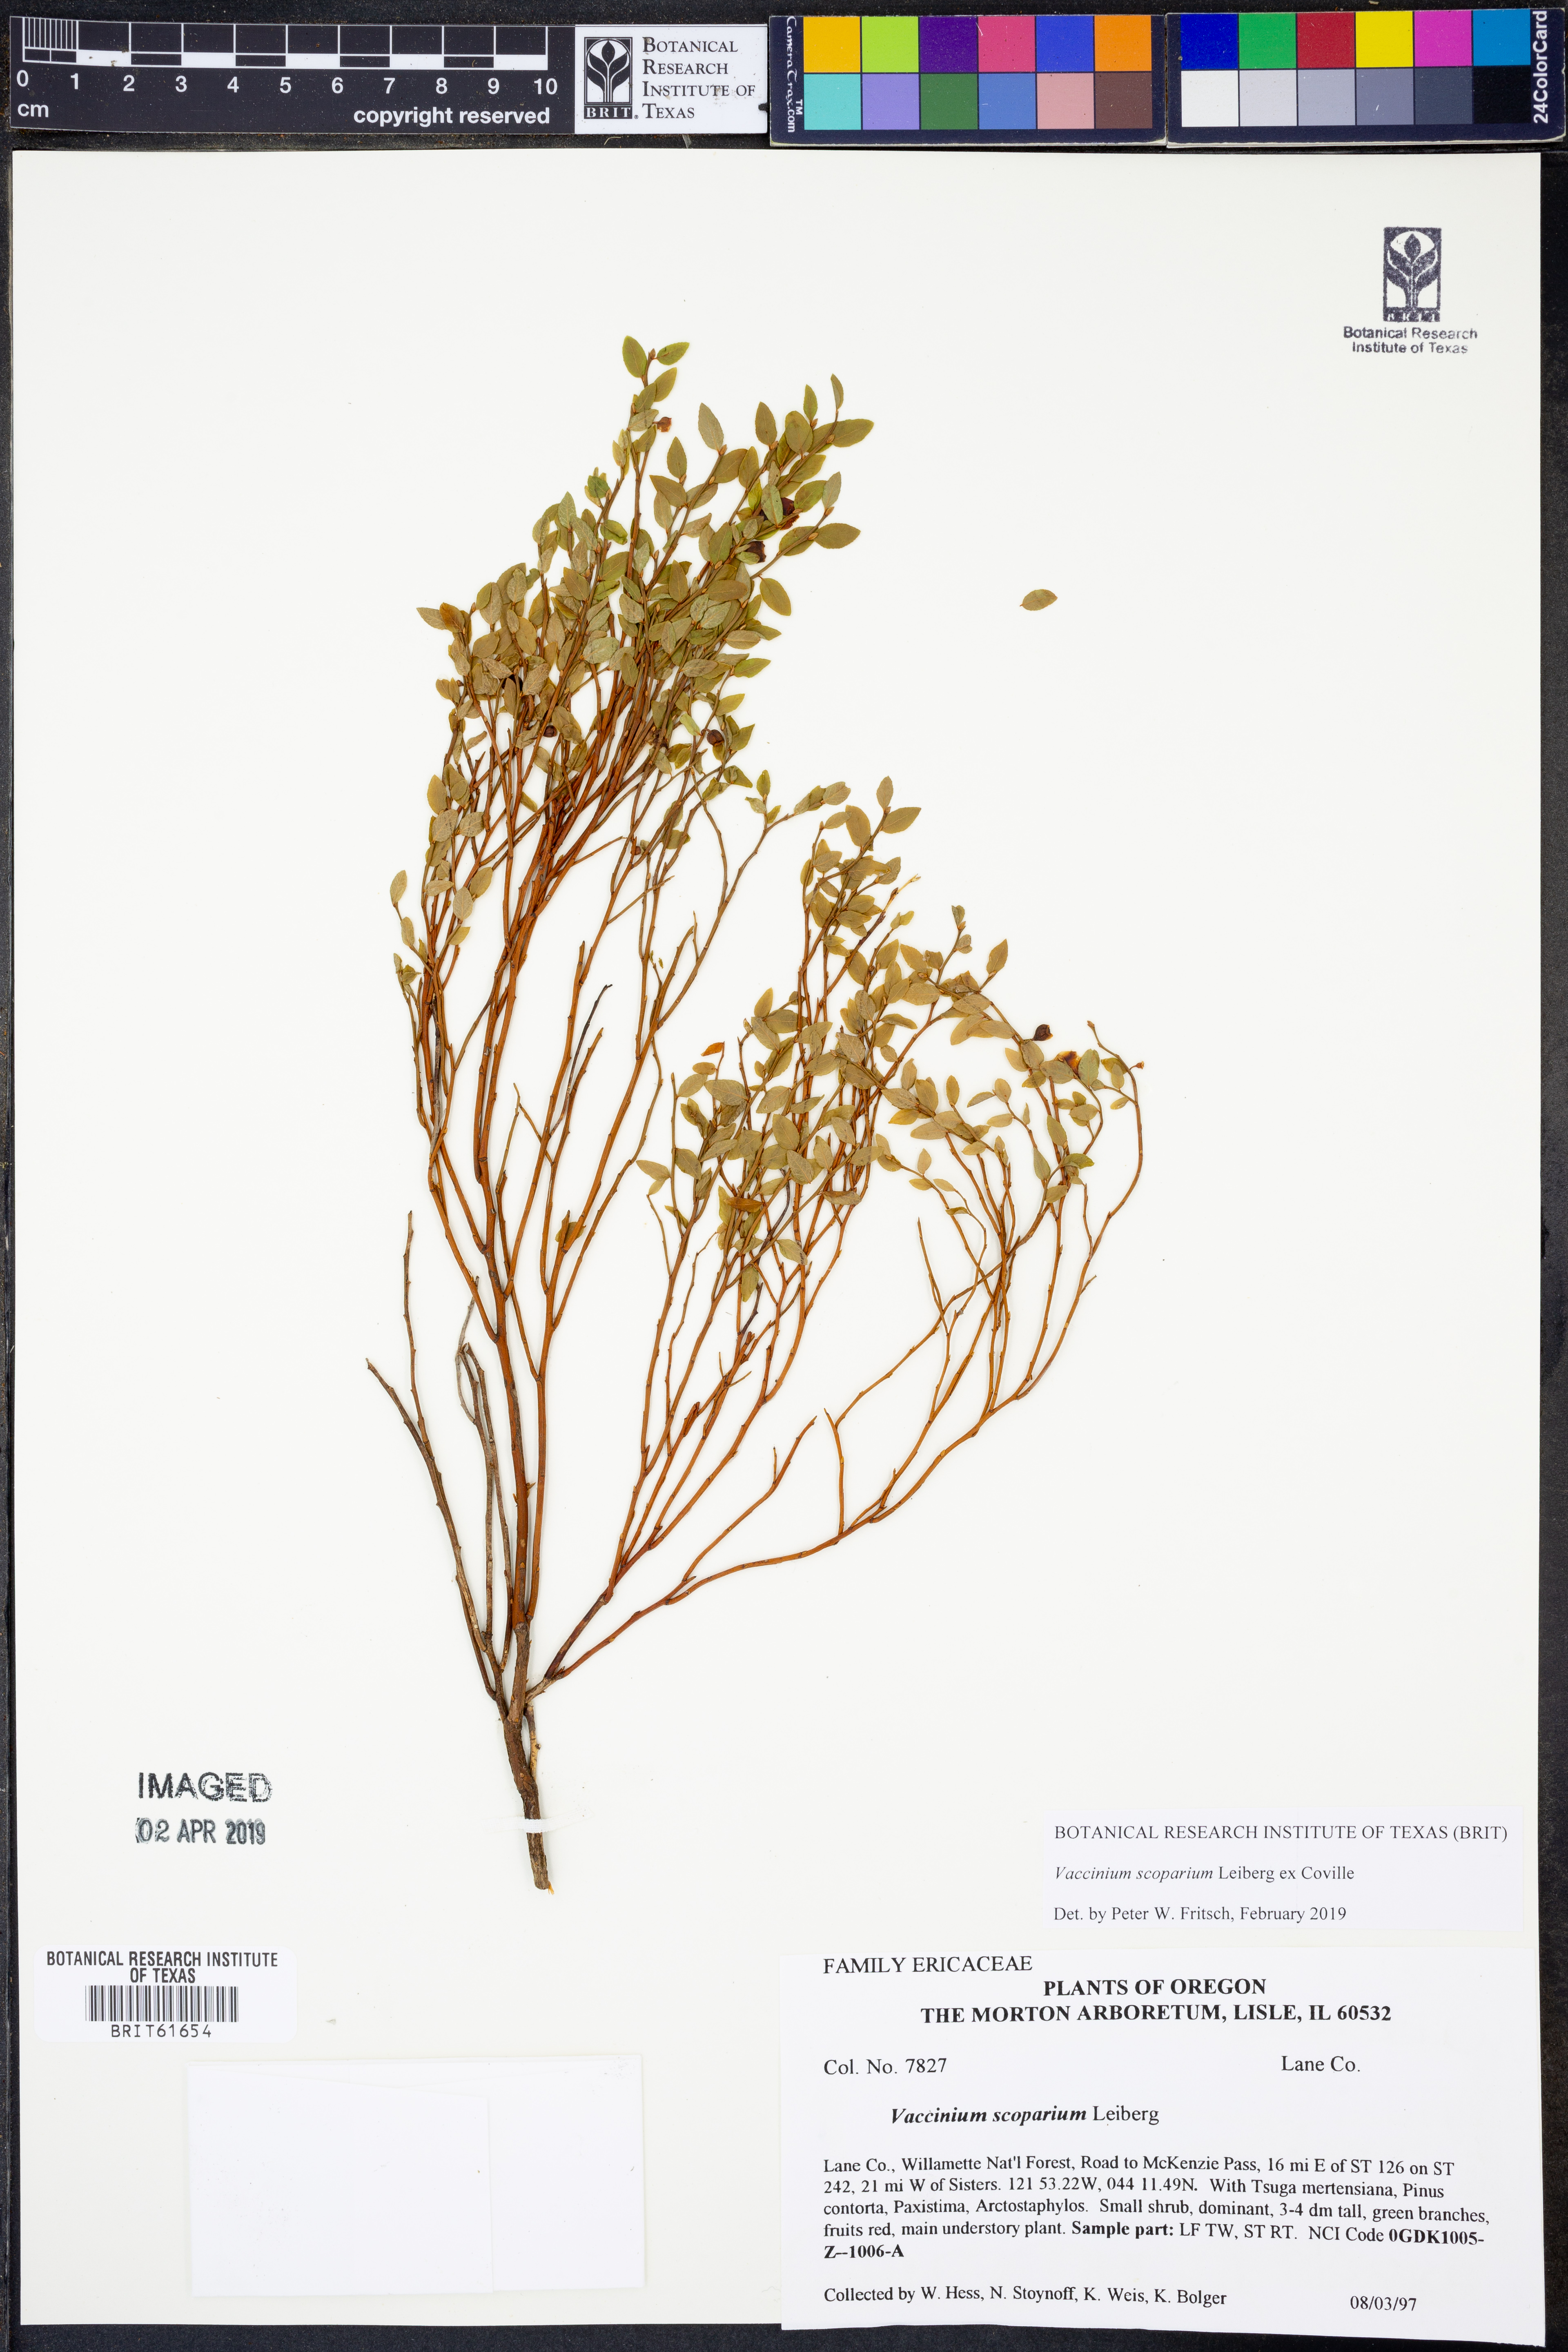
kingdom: Plantae
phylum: Tracheophyta
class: Magnoliopsida
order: Ericales
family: Ericaceae
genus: Vaccinium
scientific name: Vaccinium scoparium
